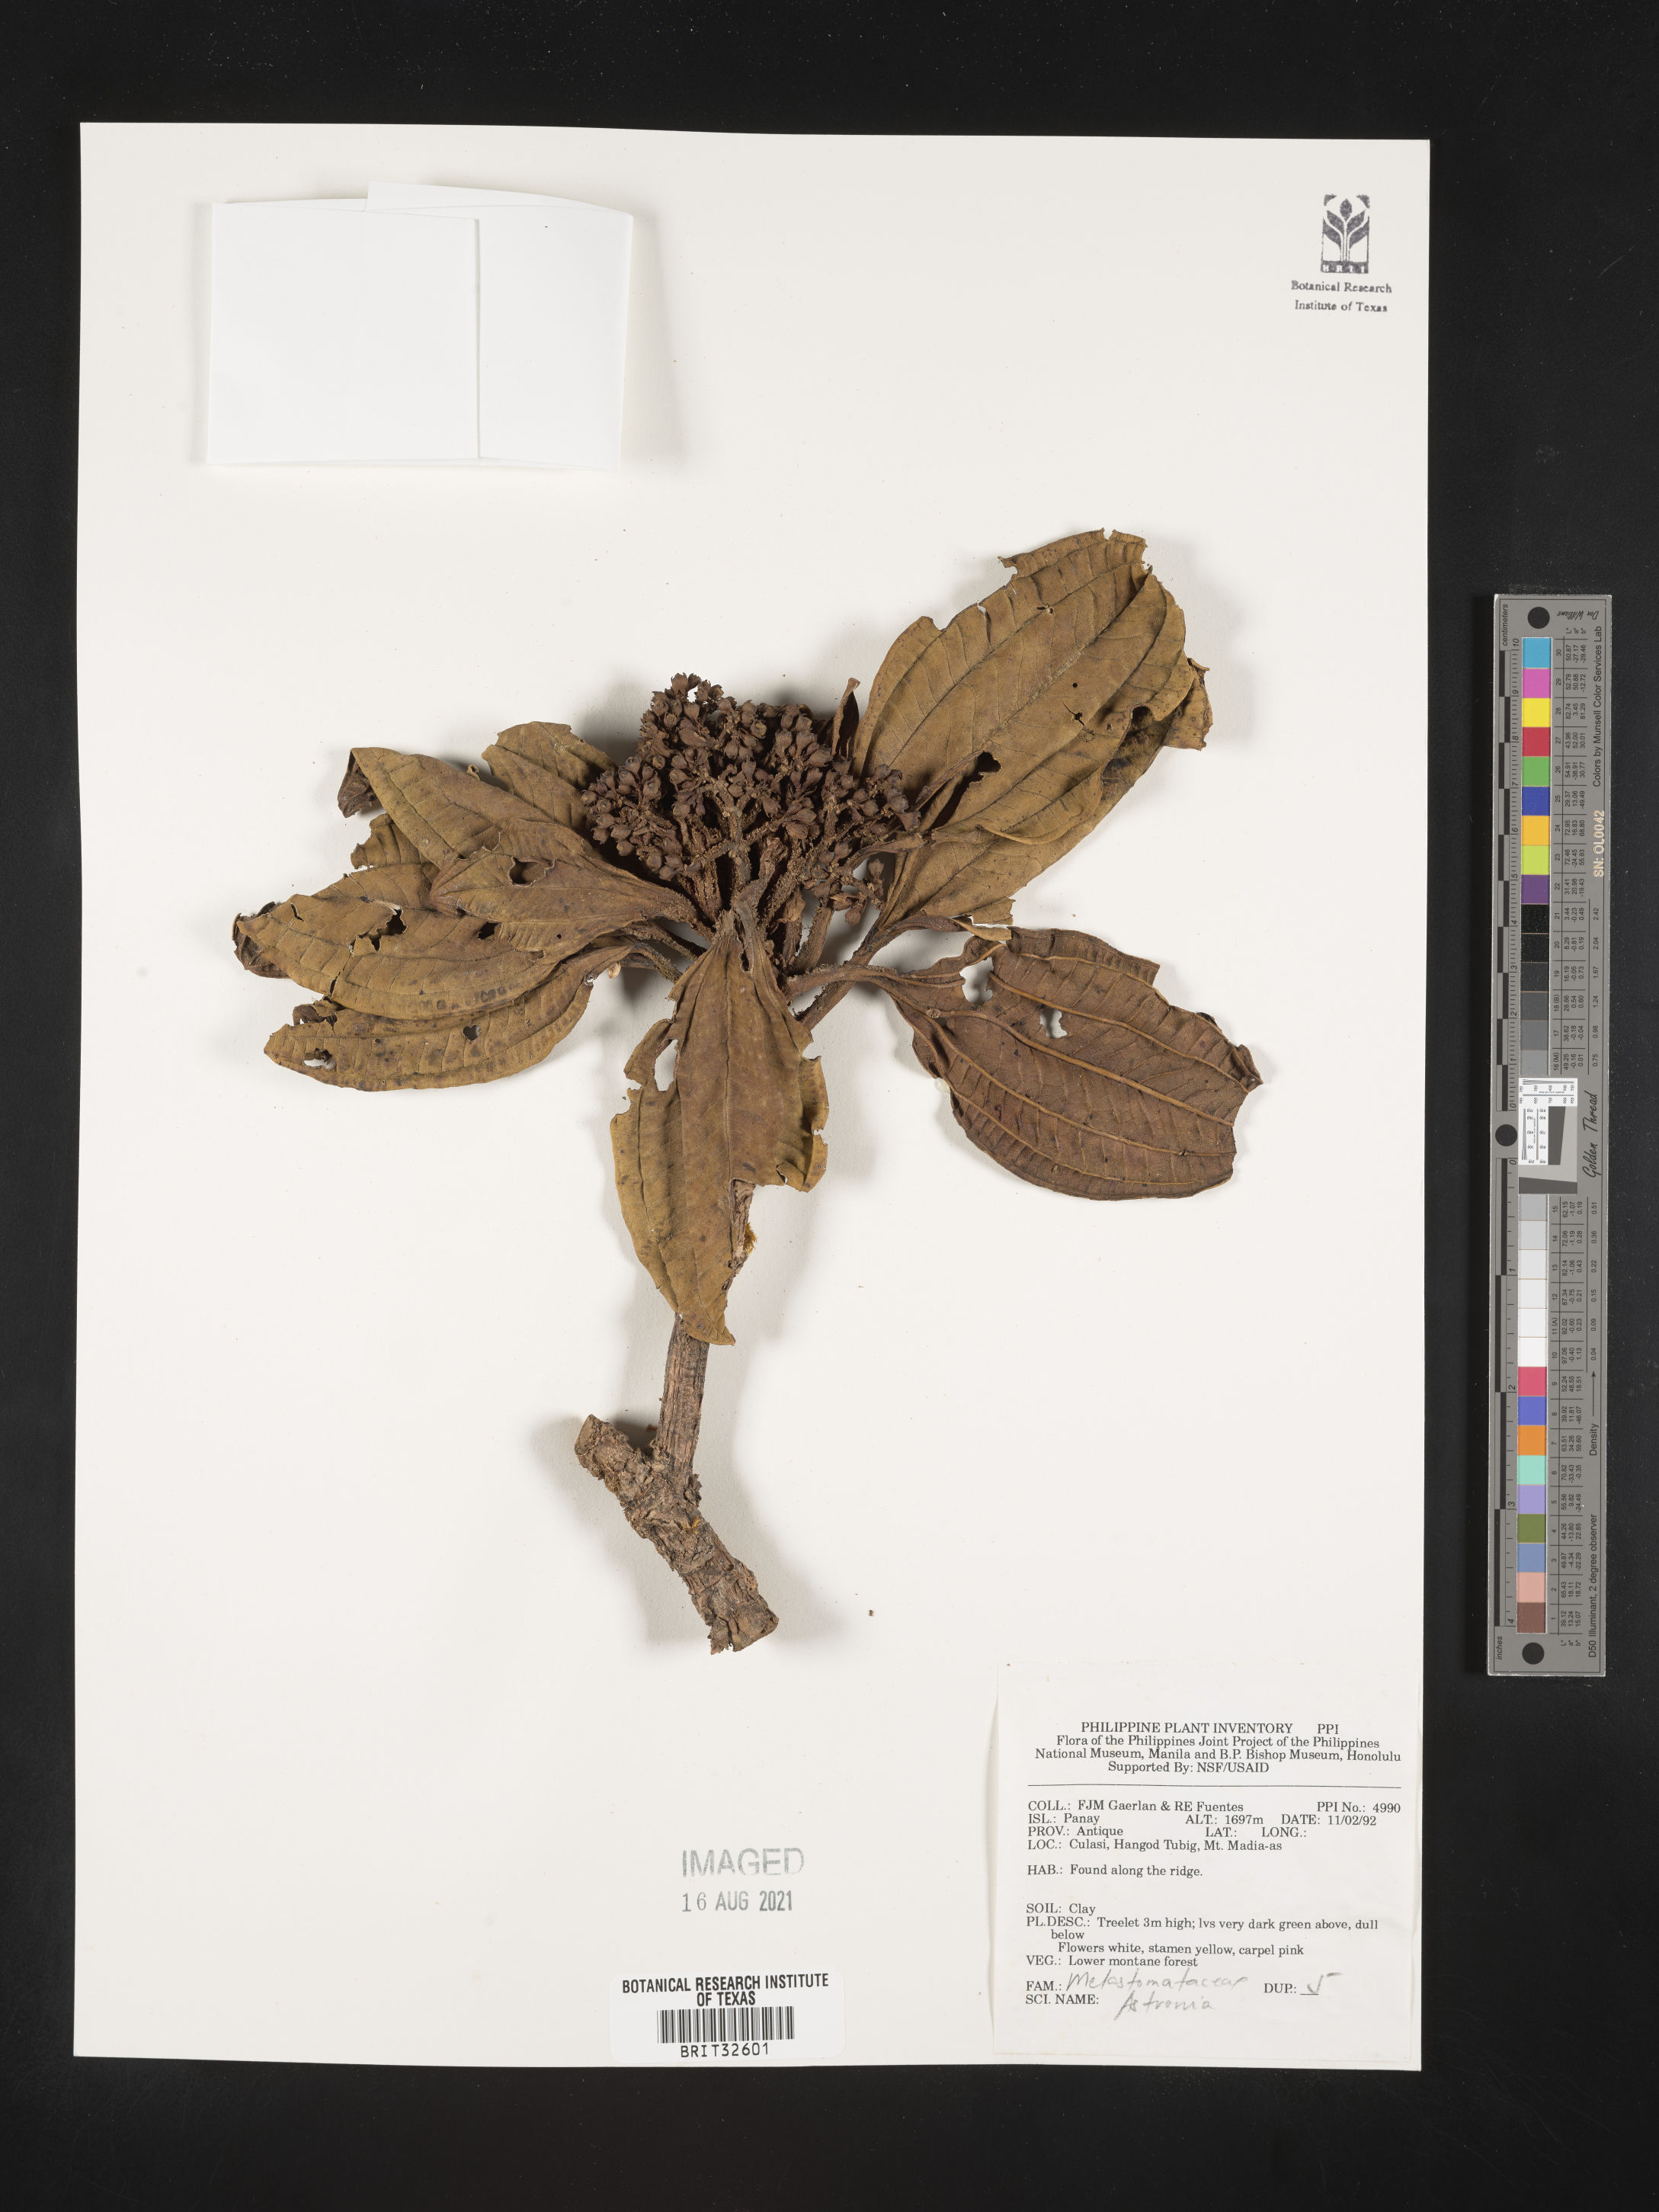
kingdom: Plantae
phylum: Tracheophyta
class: Magnoliopsida
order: Myrtales
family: Melastomataceae
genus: Astronia
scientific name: Astronia
